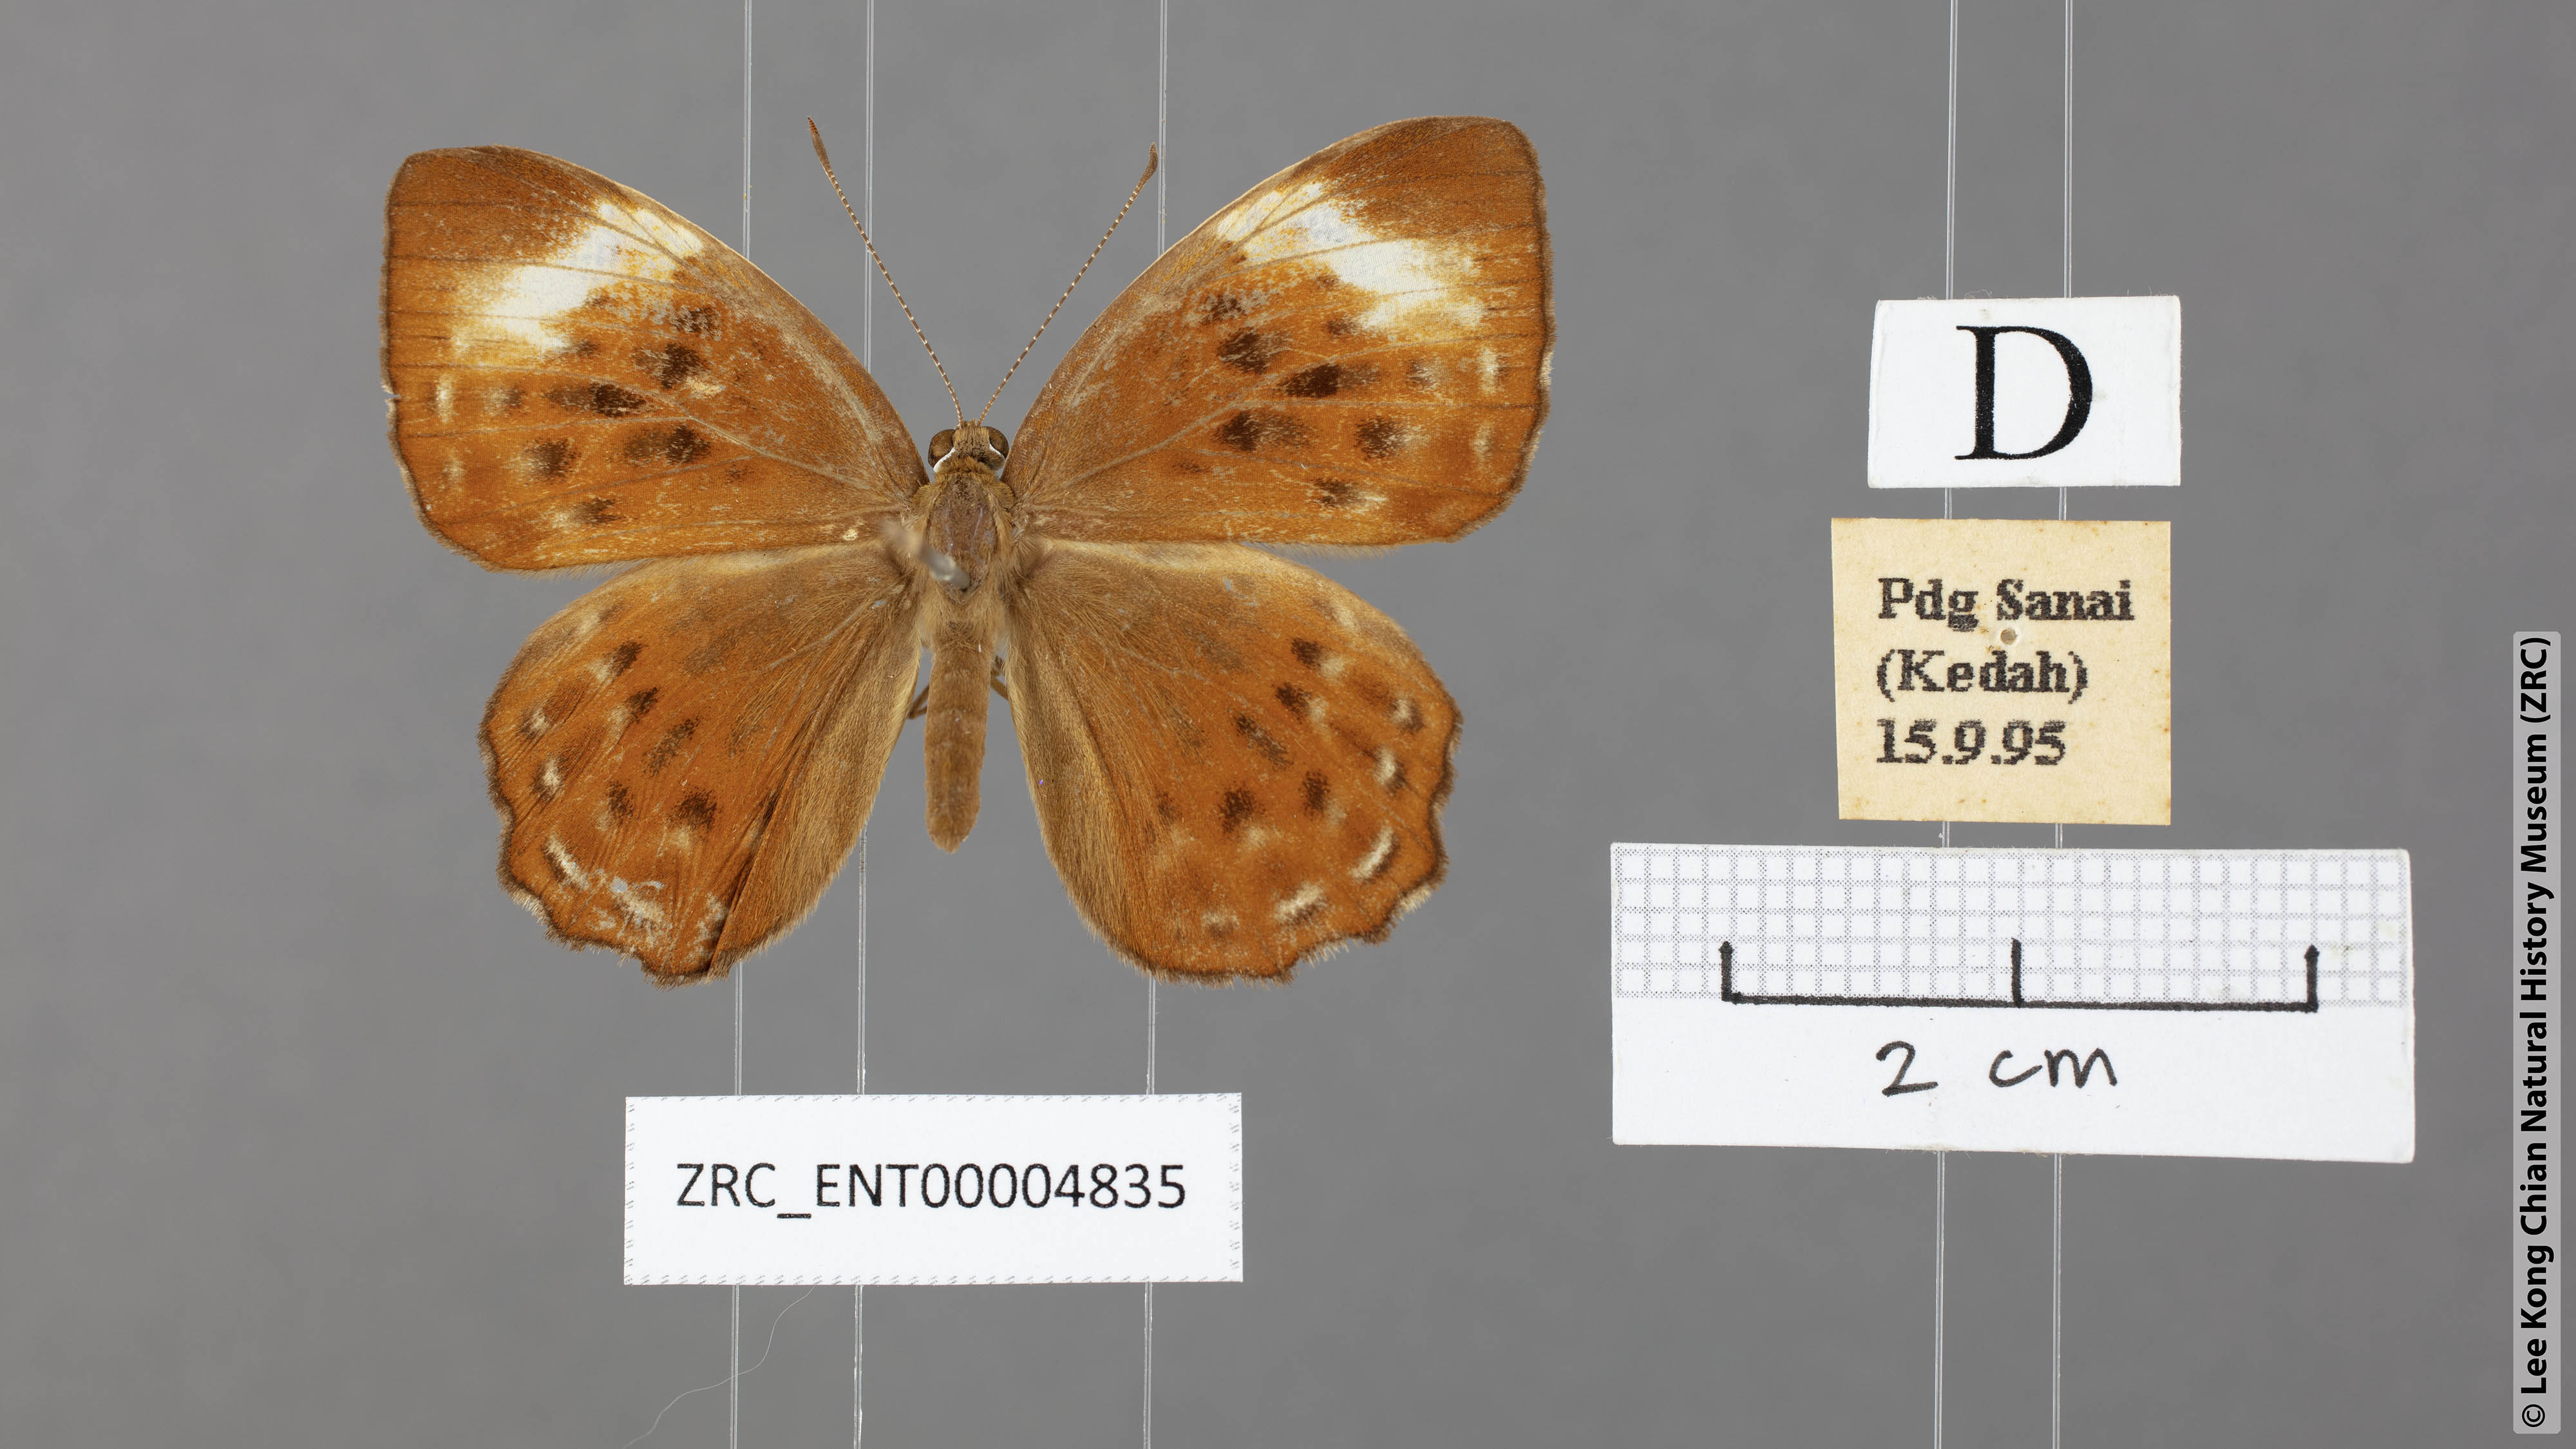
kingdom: Animalia
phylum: Arthropoda
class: Insecta
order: Lepidoptera
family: Erebidae
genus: Dysschema
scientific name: Dysschema
